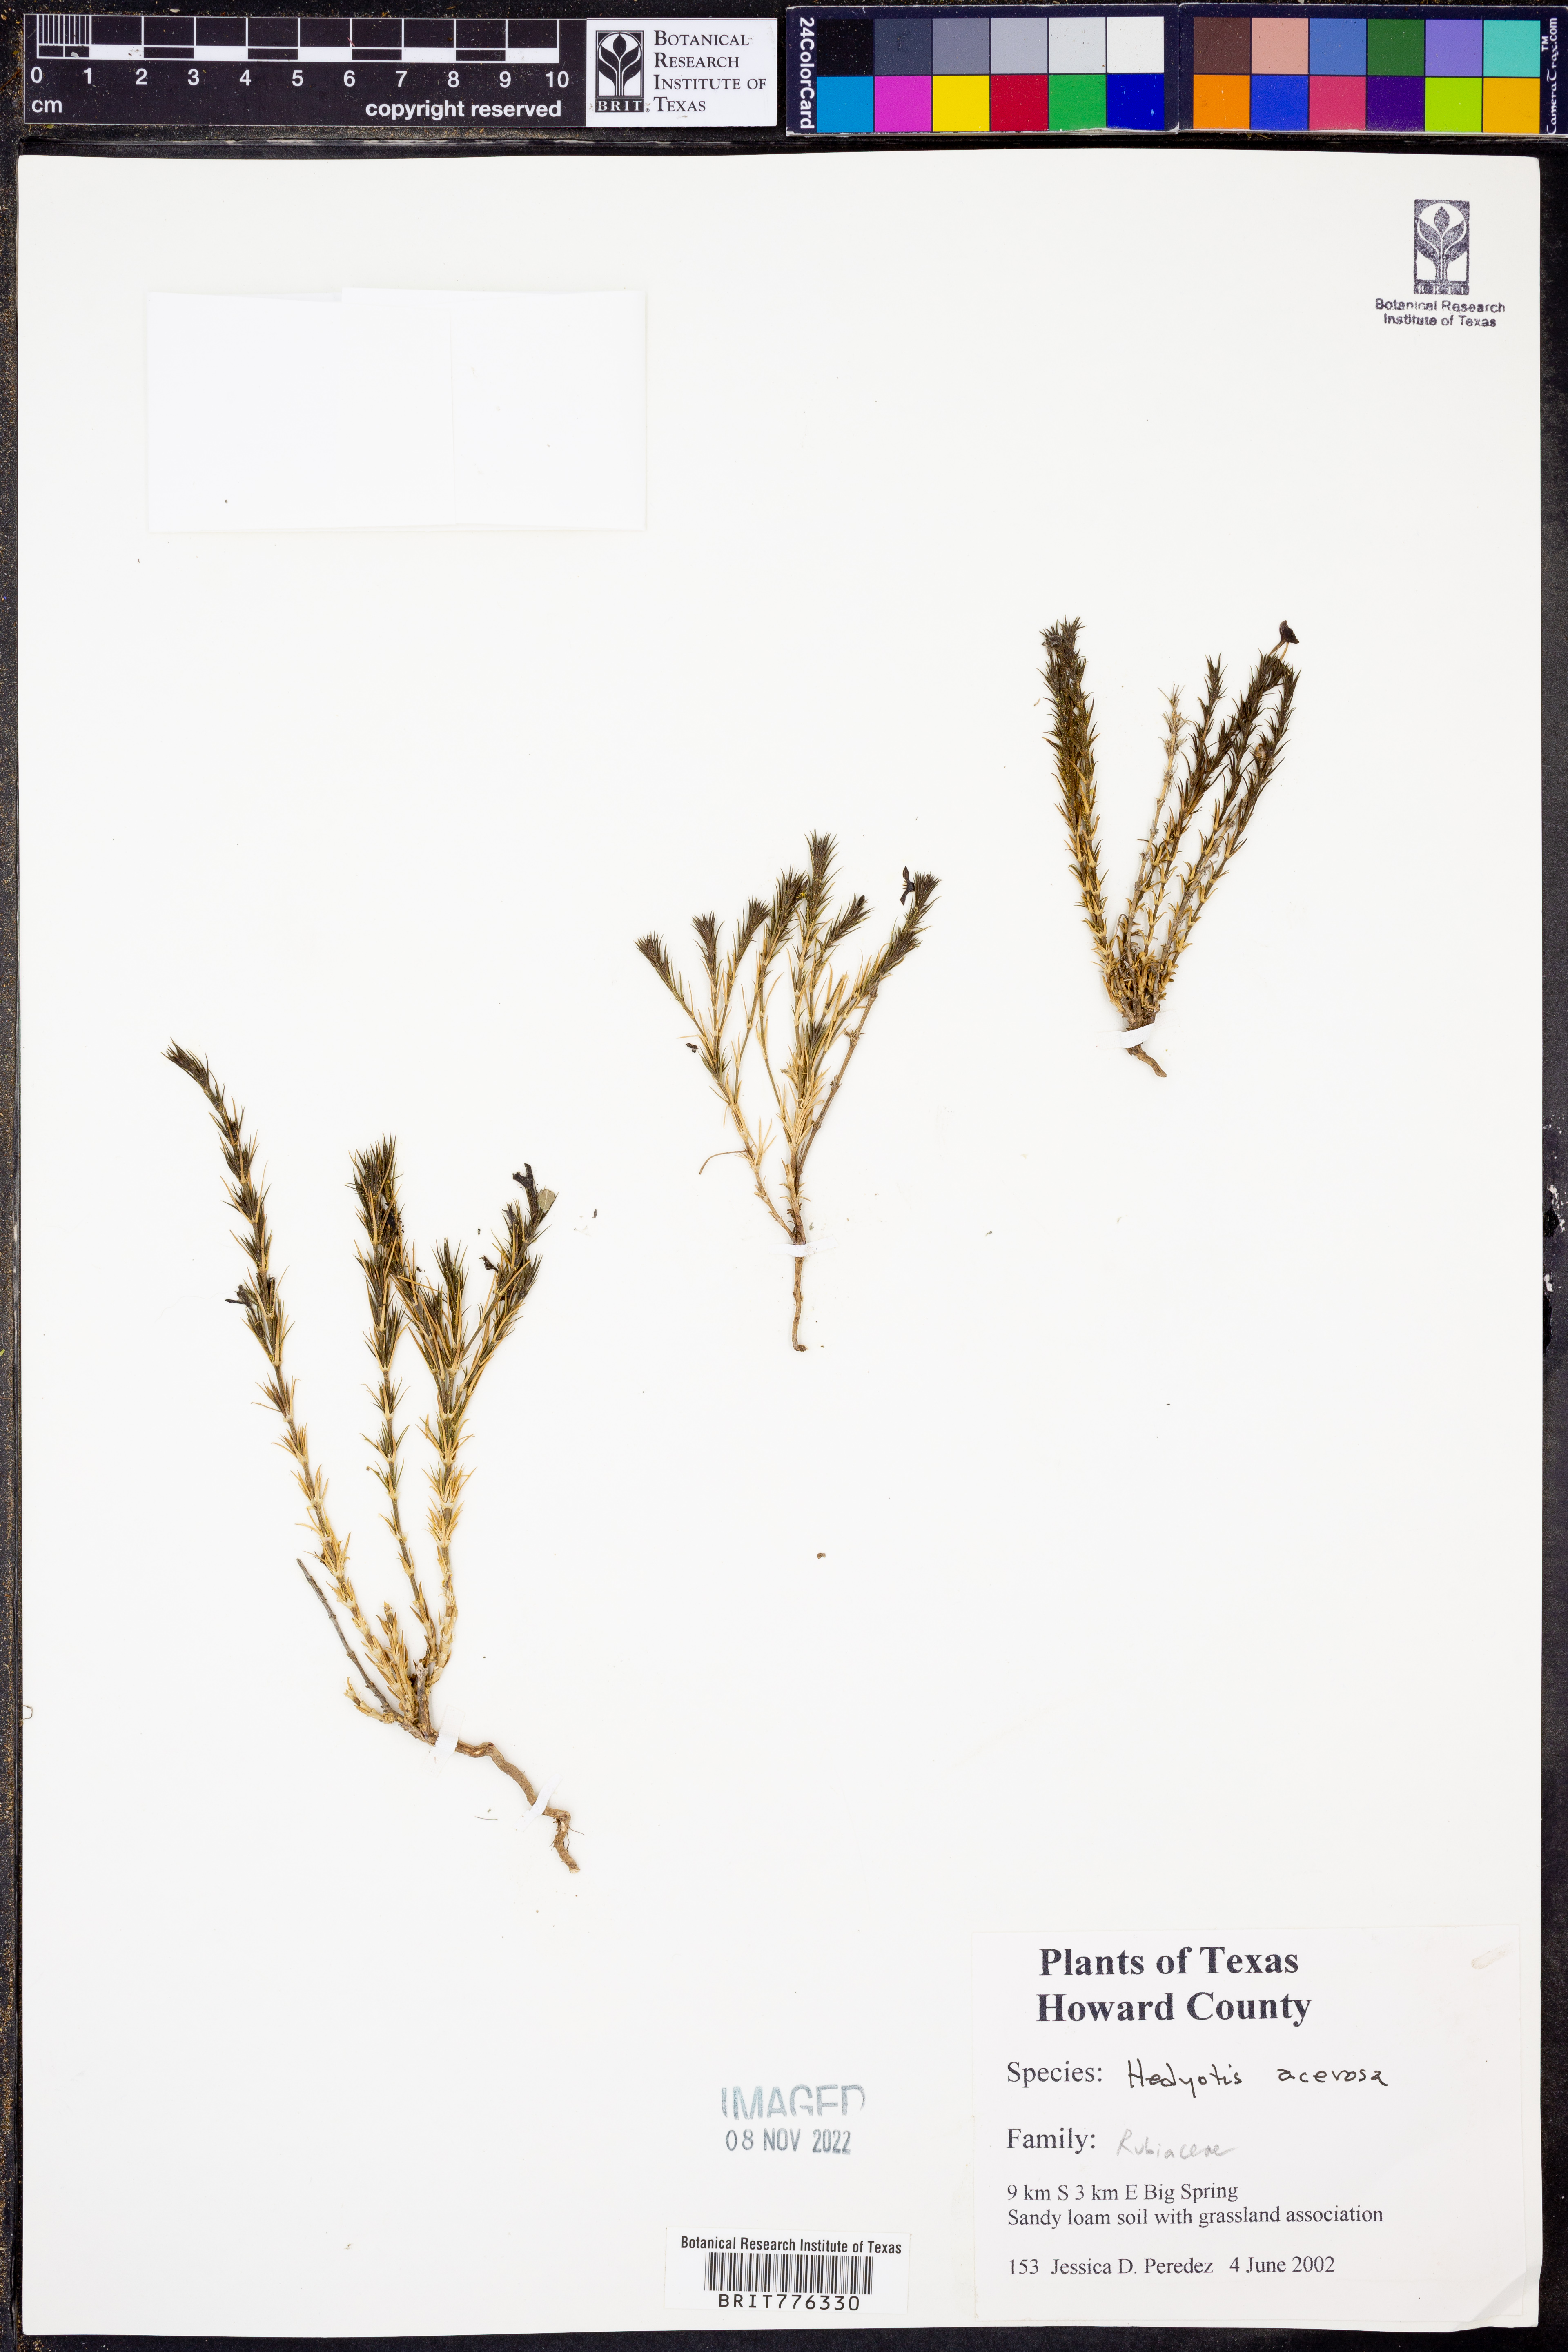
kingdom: Plantae
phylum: Tracheophyta
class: Magnoliopsida
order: Gentianales
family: Rubiaceae
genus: Houstonia
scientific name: Houstonia acerosa
